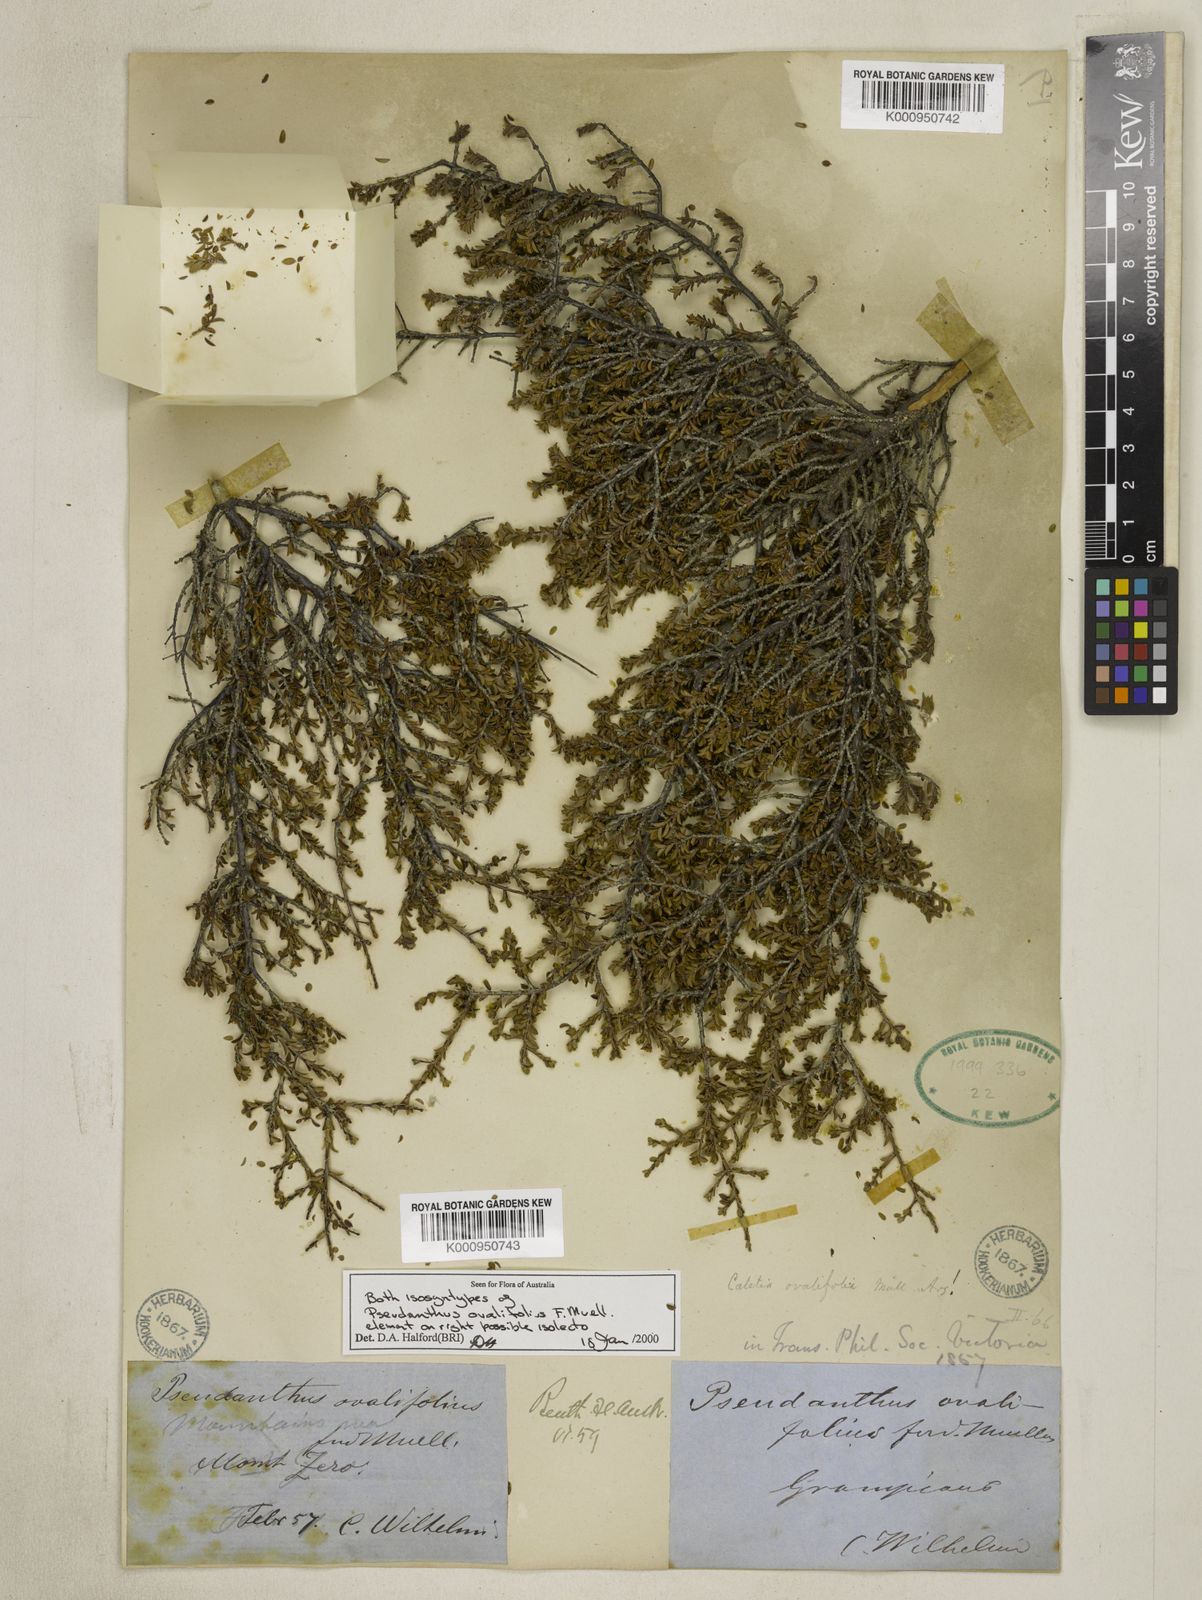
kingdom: Plantae
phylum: Tracheophyta
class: Magnoliopsida
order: Malpighiales
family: Picrodendraceae
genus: Pseudanthus
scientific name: Pseudanthus ovalifolius
